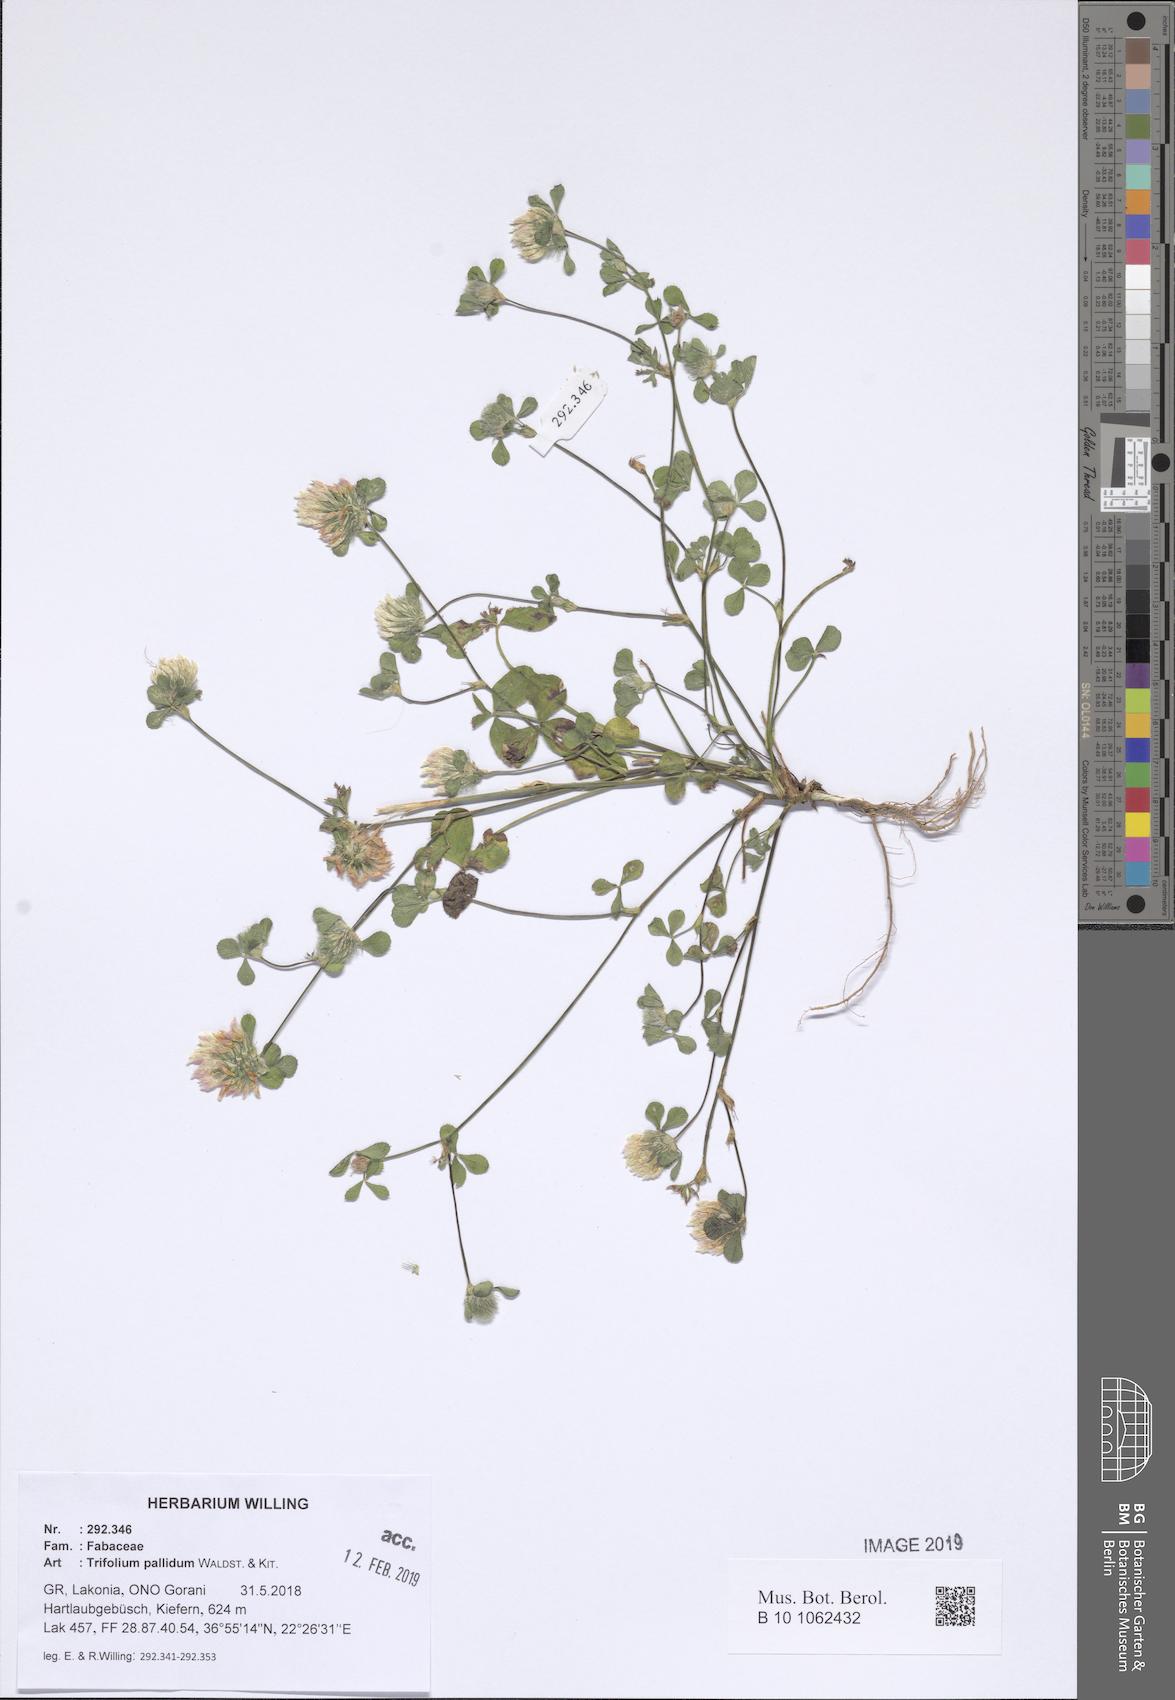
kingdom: Plantae
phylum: Tracheophyta
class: Magnoliopsida
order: Fabales
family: Fabaceae
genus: Trifolium
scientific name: Trifolium pallidum
